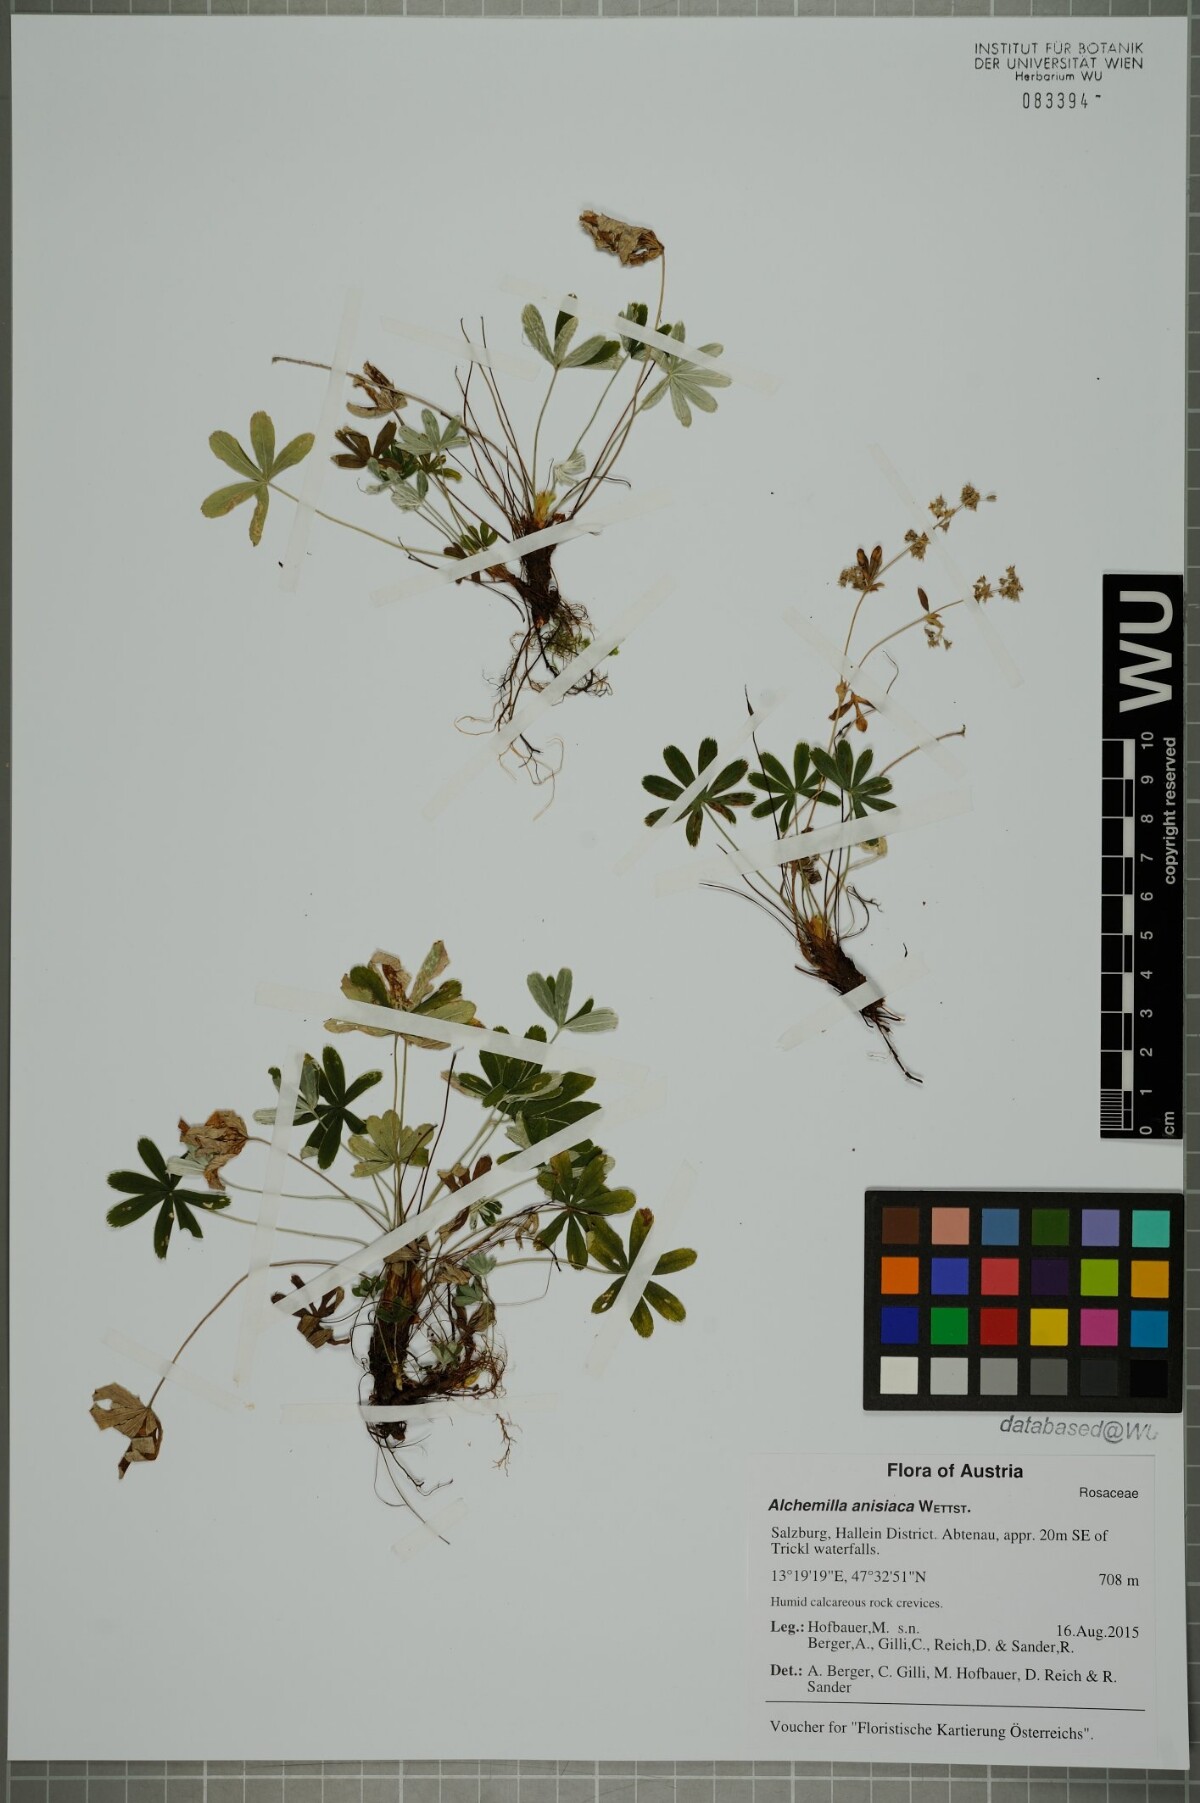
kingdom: Plantae
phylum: Tracheophyta
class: Magnoliopsida
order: Rosales
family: Rosaceae
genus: Alchemilla
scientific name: Alchemilla anisiaca
